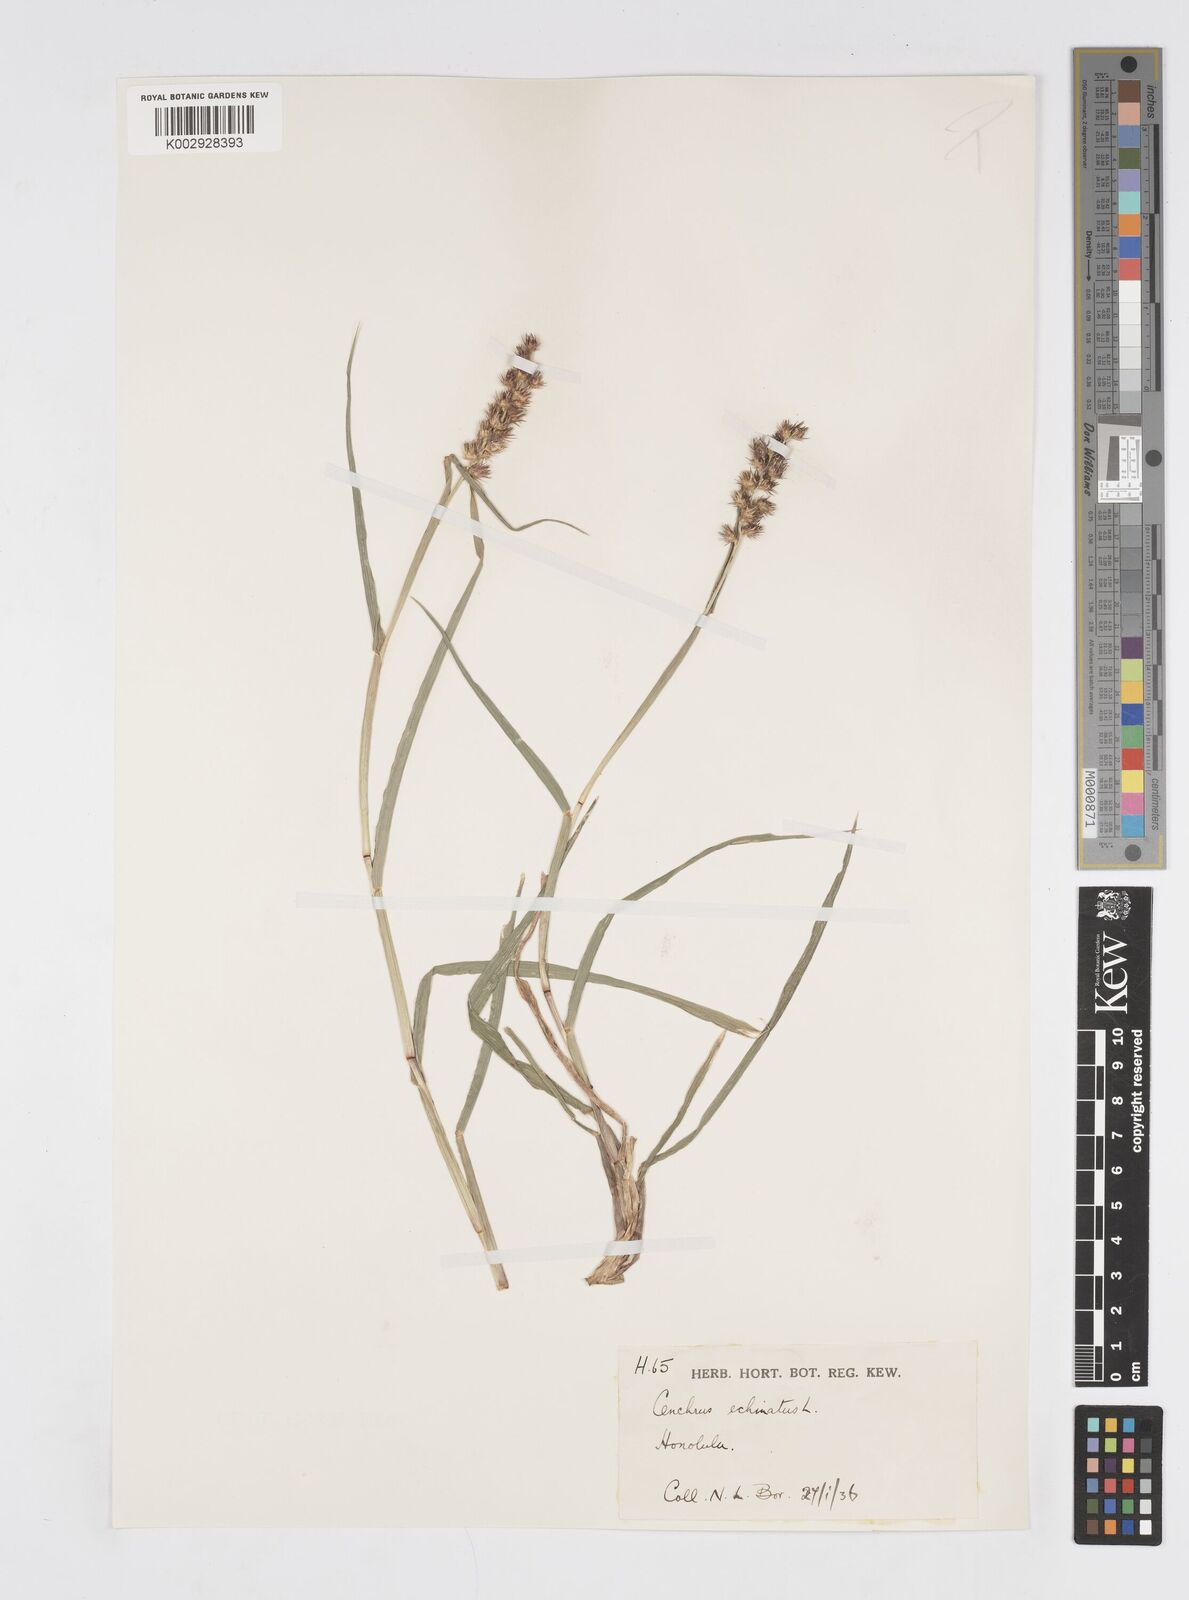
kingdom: Plantae
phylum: Tracheophyta
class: Liliopsida
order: Poales
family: Poaceae
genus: Cenchrus
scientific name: Cenchrus echinatus
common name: Southern sandbur
